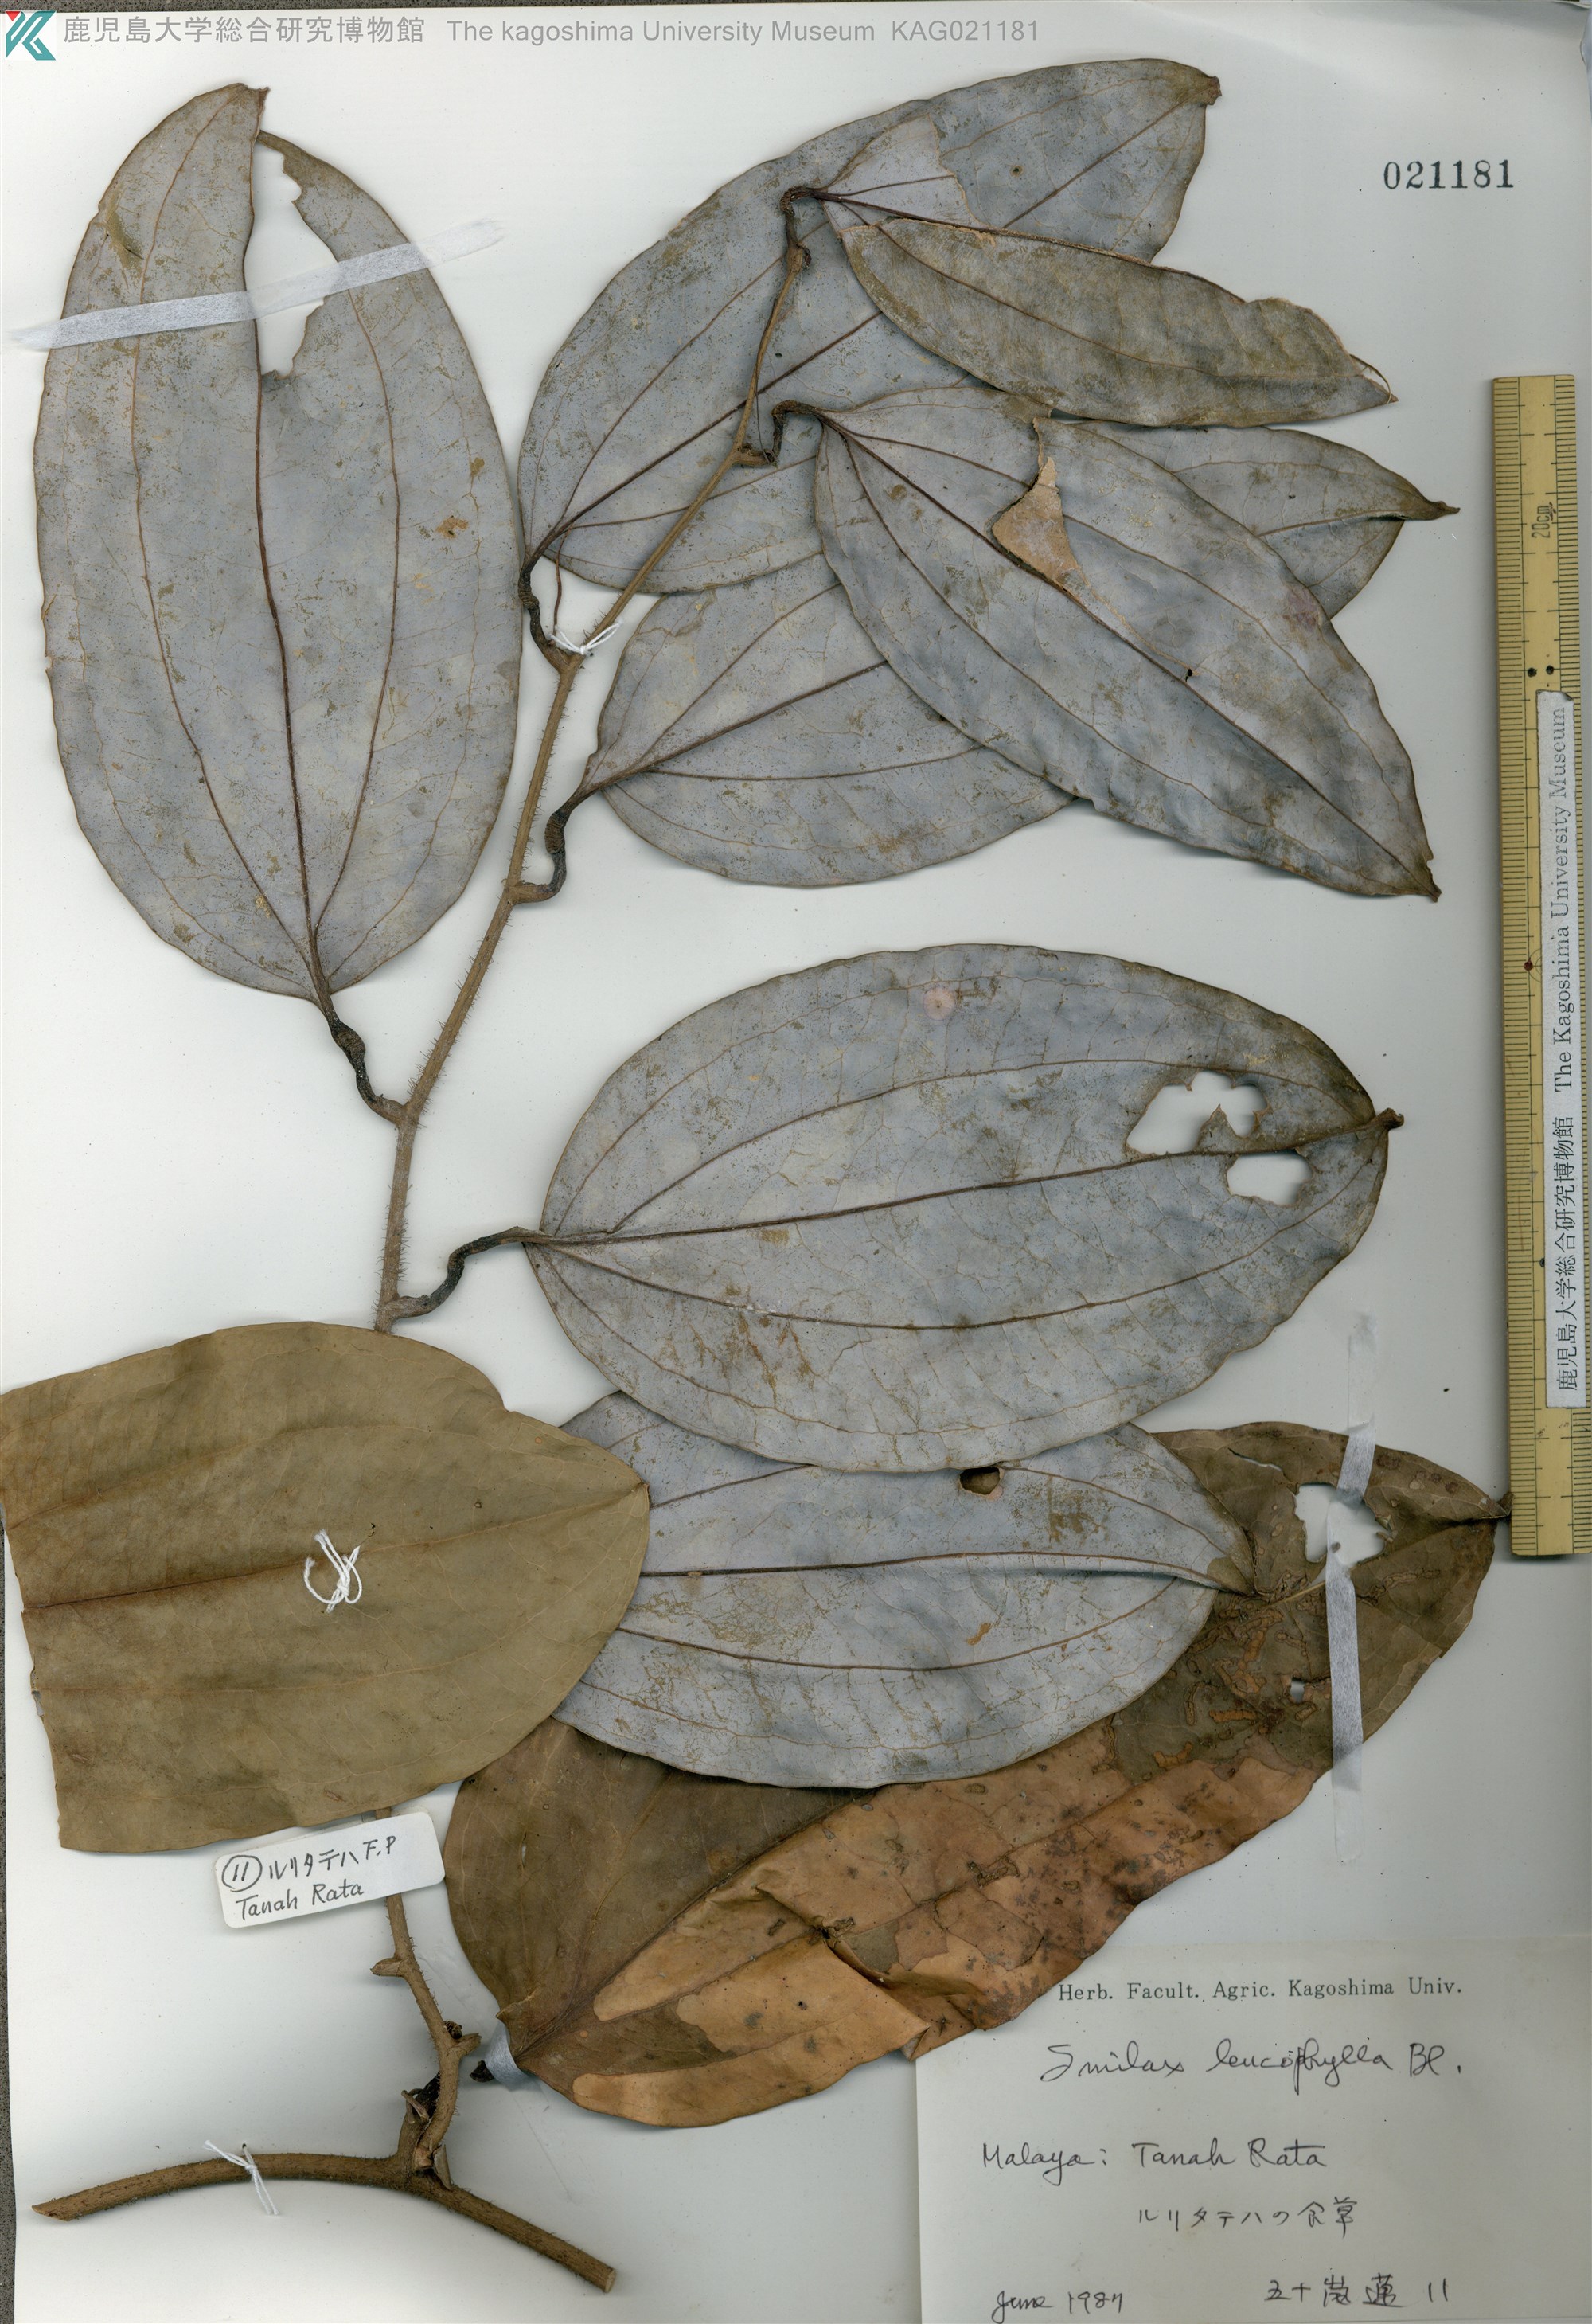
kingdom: Plantae
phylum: Tracheophyta
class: Liliopsida
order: Liliales
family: Smilacaceae
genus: Smilax
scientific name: Smilax leucophylla
